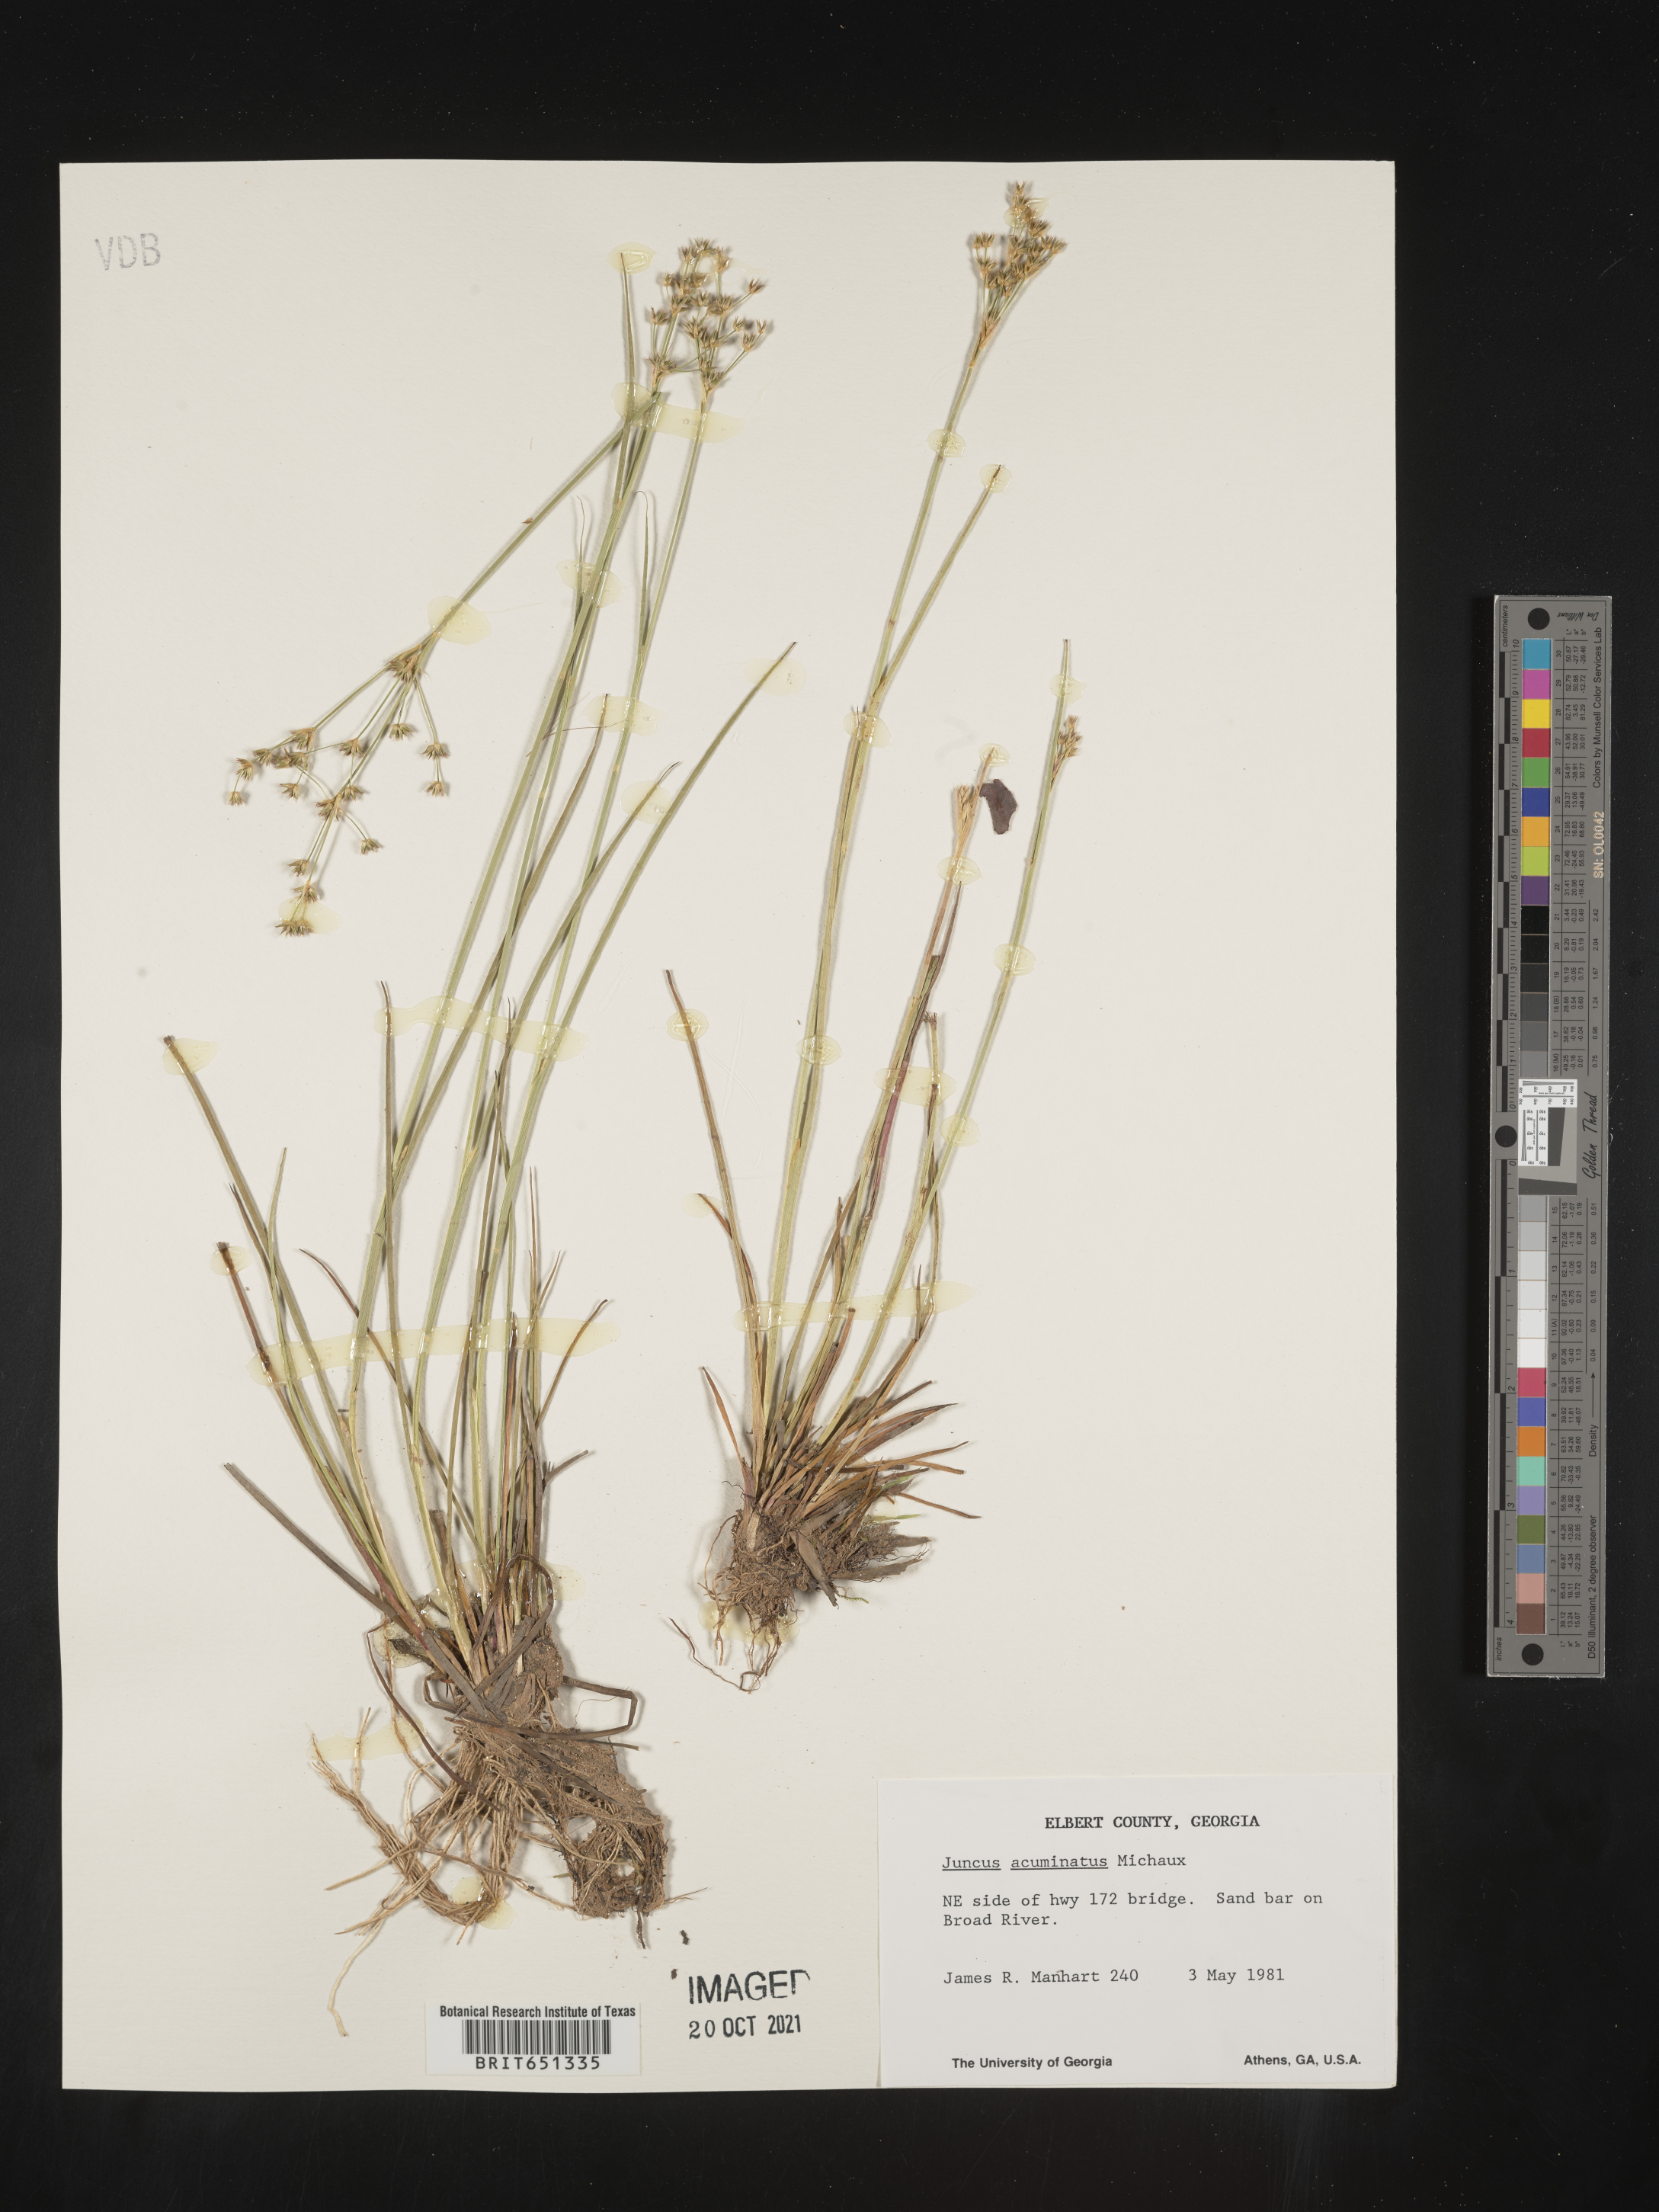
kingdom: Plantae
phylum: Tracheophyta
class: Liliopsida
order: Poales
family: Juncaceae
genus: Juncus
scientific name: Juncus acuminatus
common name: Knotty-leaved rush
